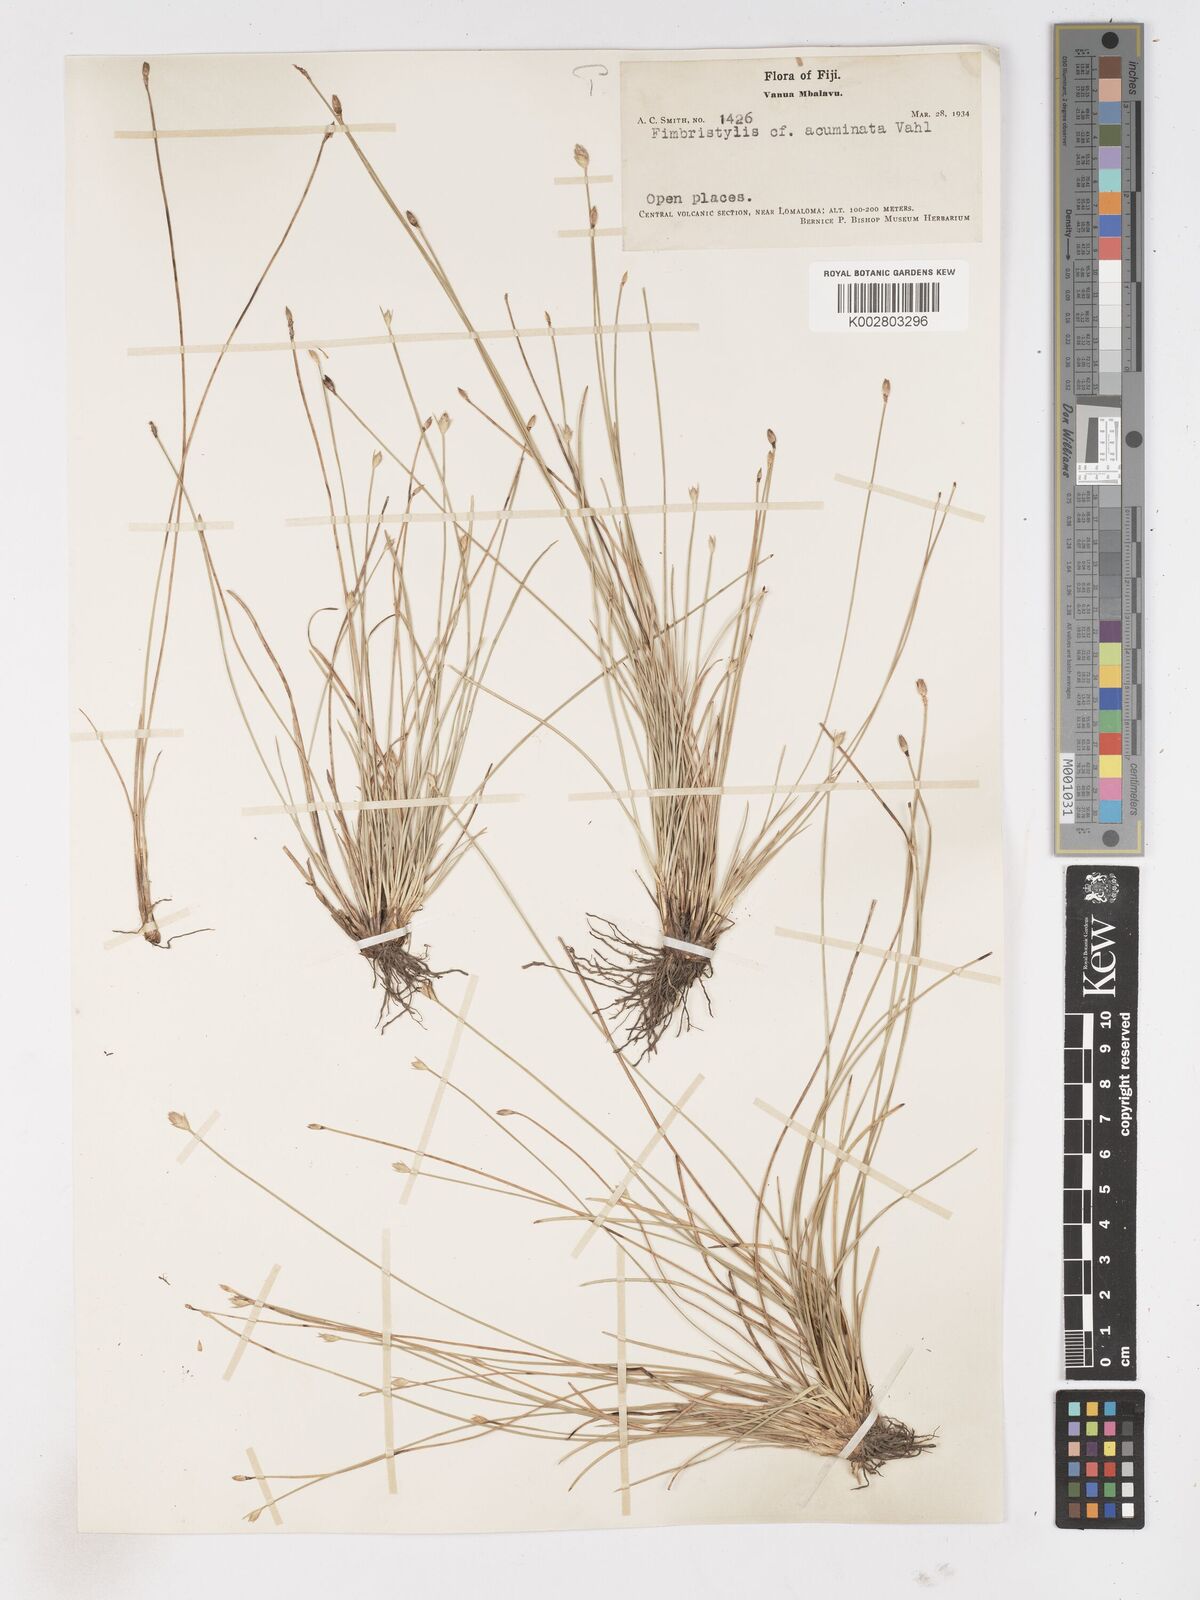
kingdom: Plantae
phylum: Tracheophyta
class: Liliopsida
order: Poales
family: Cyperaceae
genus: Abildgaardia
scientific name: Abildgaardia ovata
